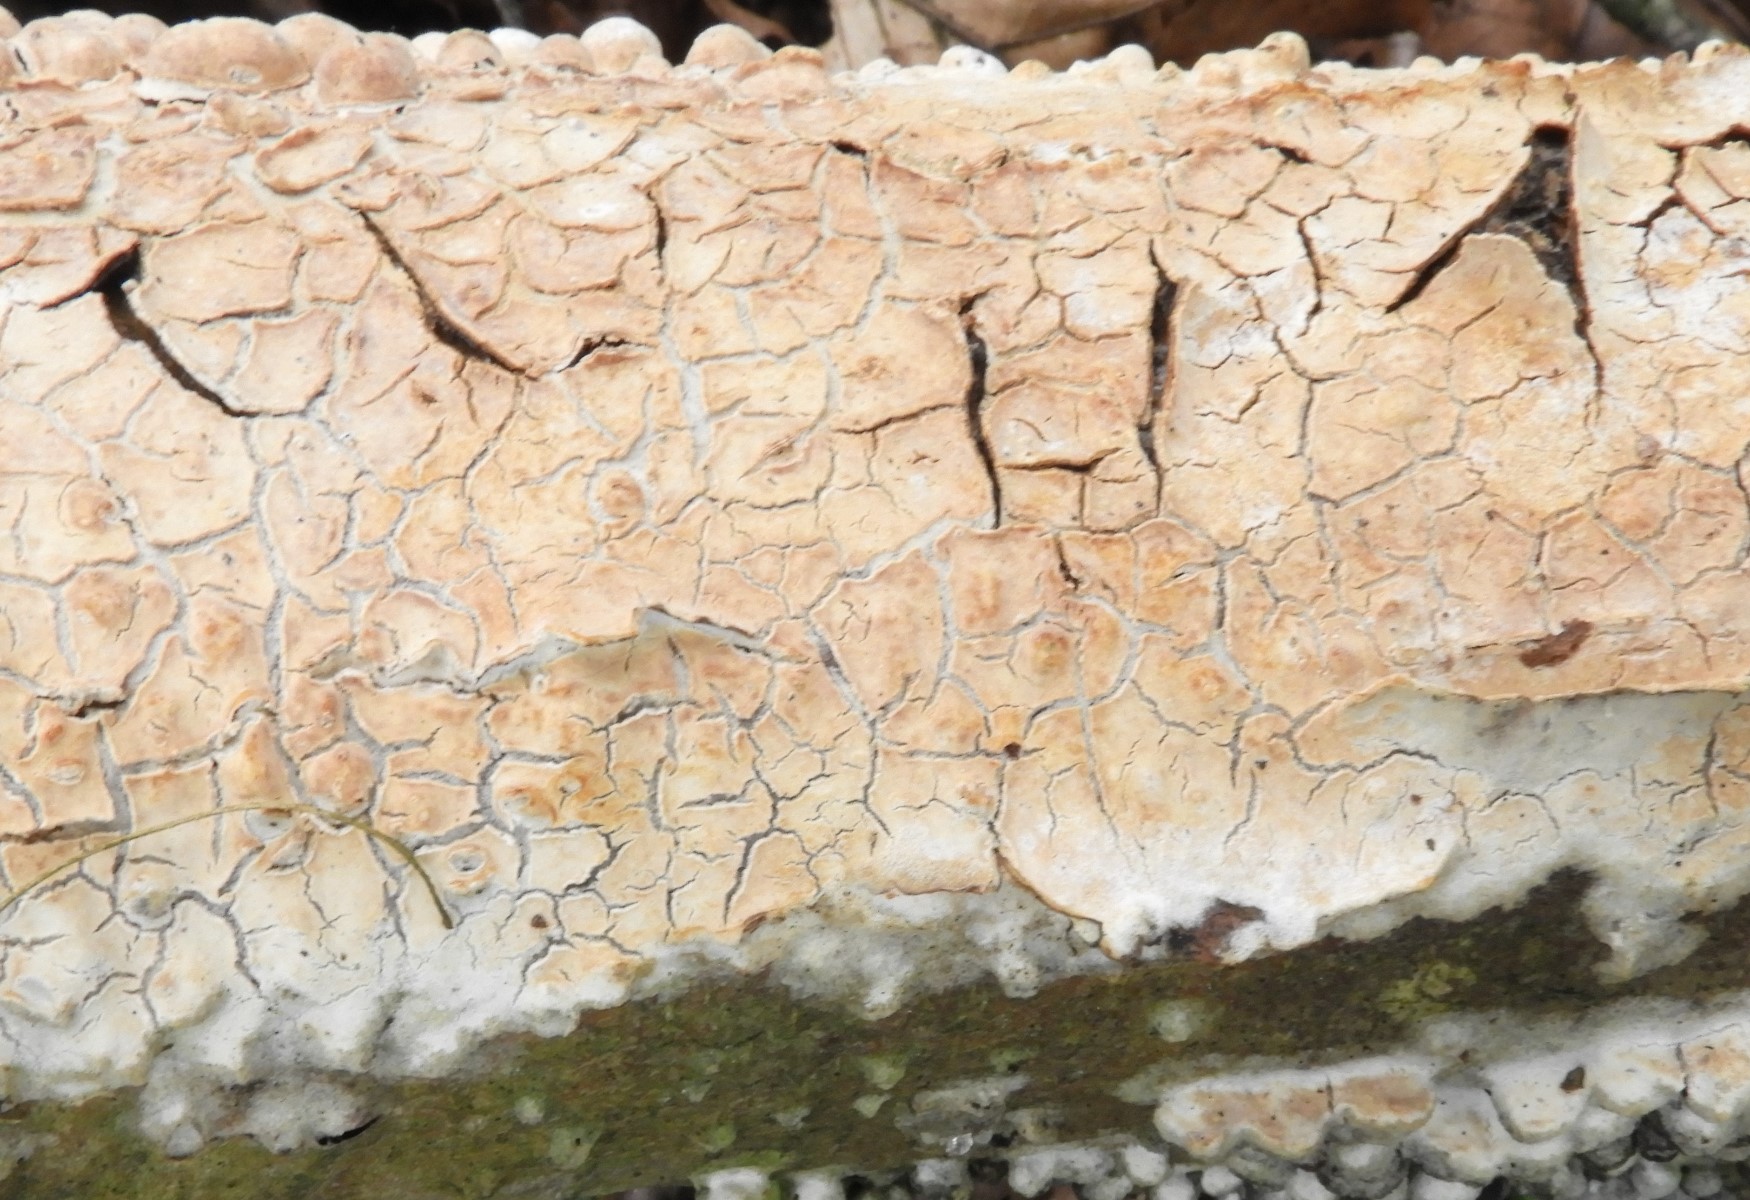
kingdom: Fungi
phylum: Basidiomycota
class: Agaricomycetes
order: Agaricales
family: Physalacriaceae
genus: Cylindrobasidium
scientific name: Cylindrobasidium evolvens
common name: sprækkehinde
